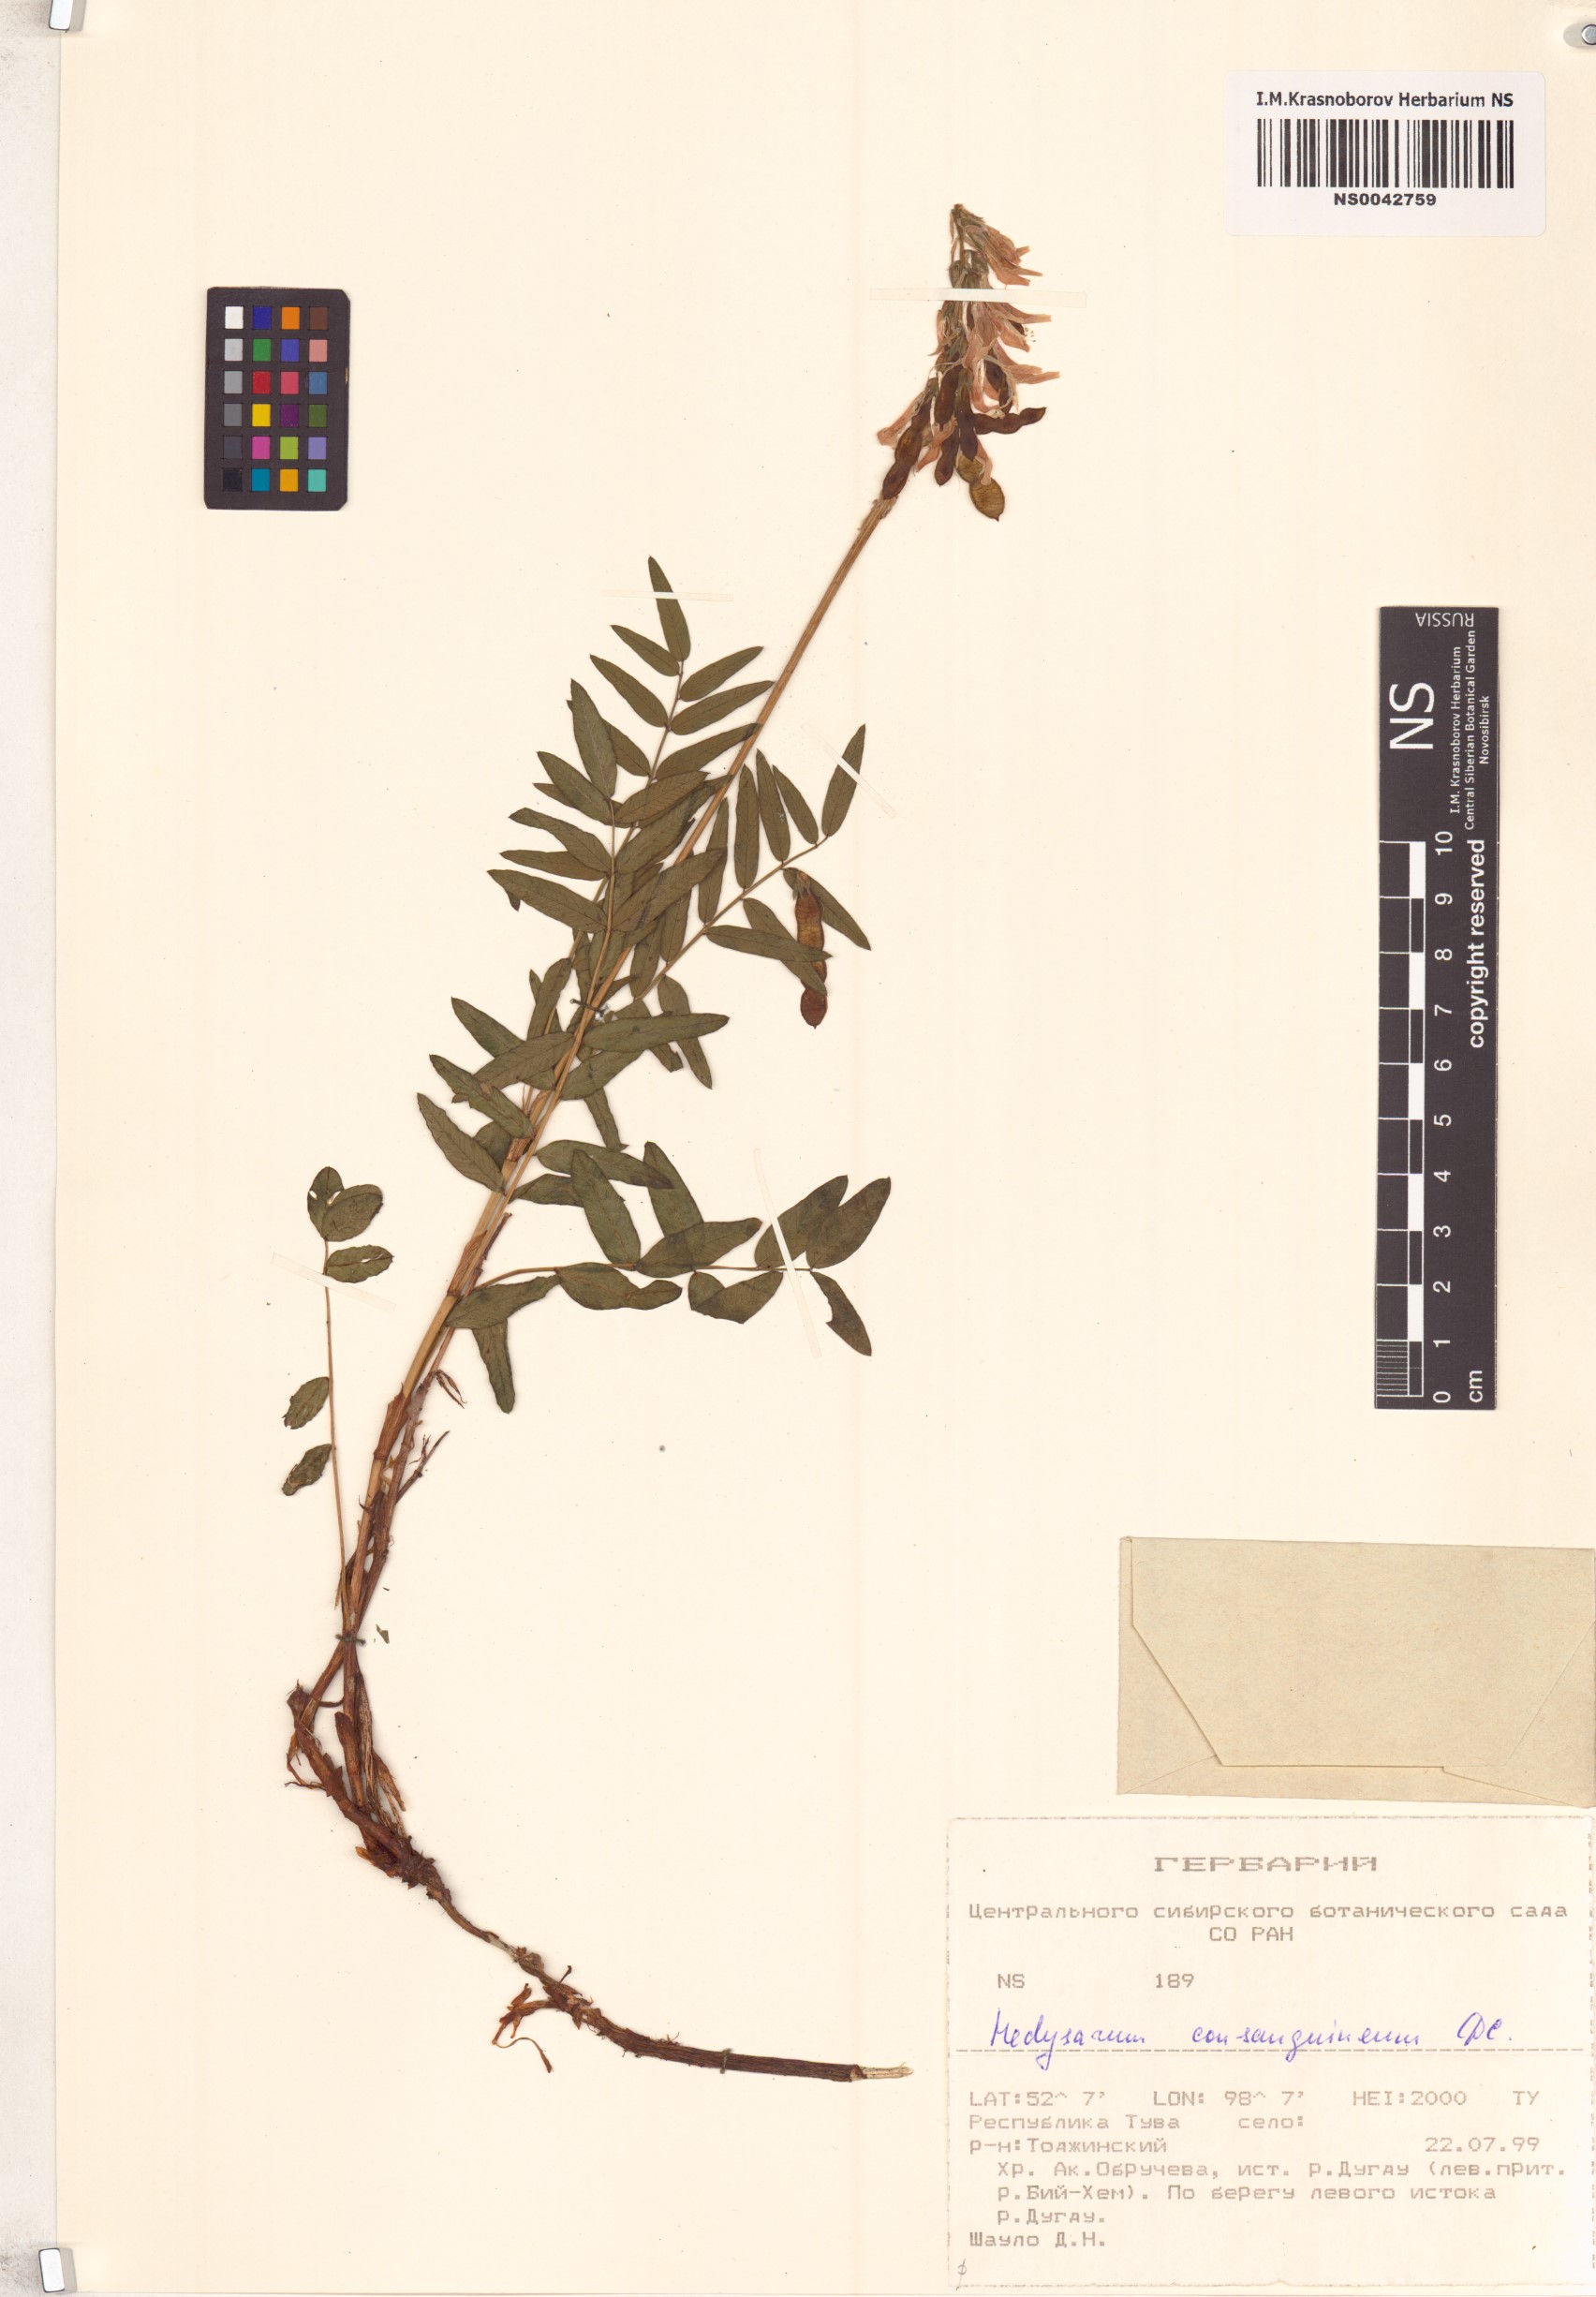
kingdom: Plantae
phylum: Tracheophyta
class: Magnoliopsida
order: Fabales
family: Fabaceae
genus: Hedysarum
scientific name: Hedysarum consanguineum
